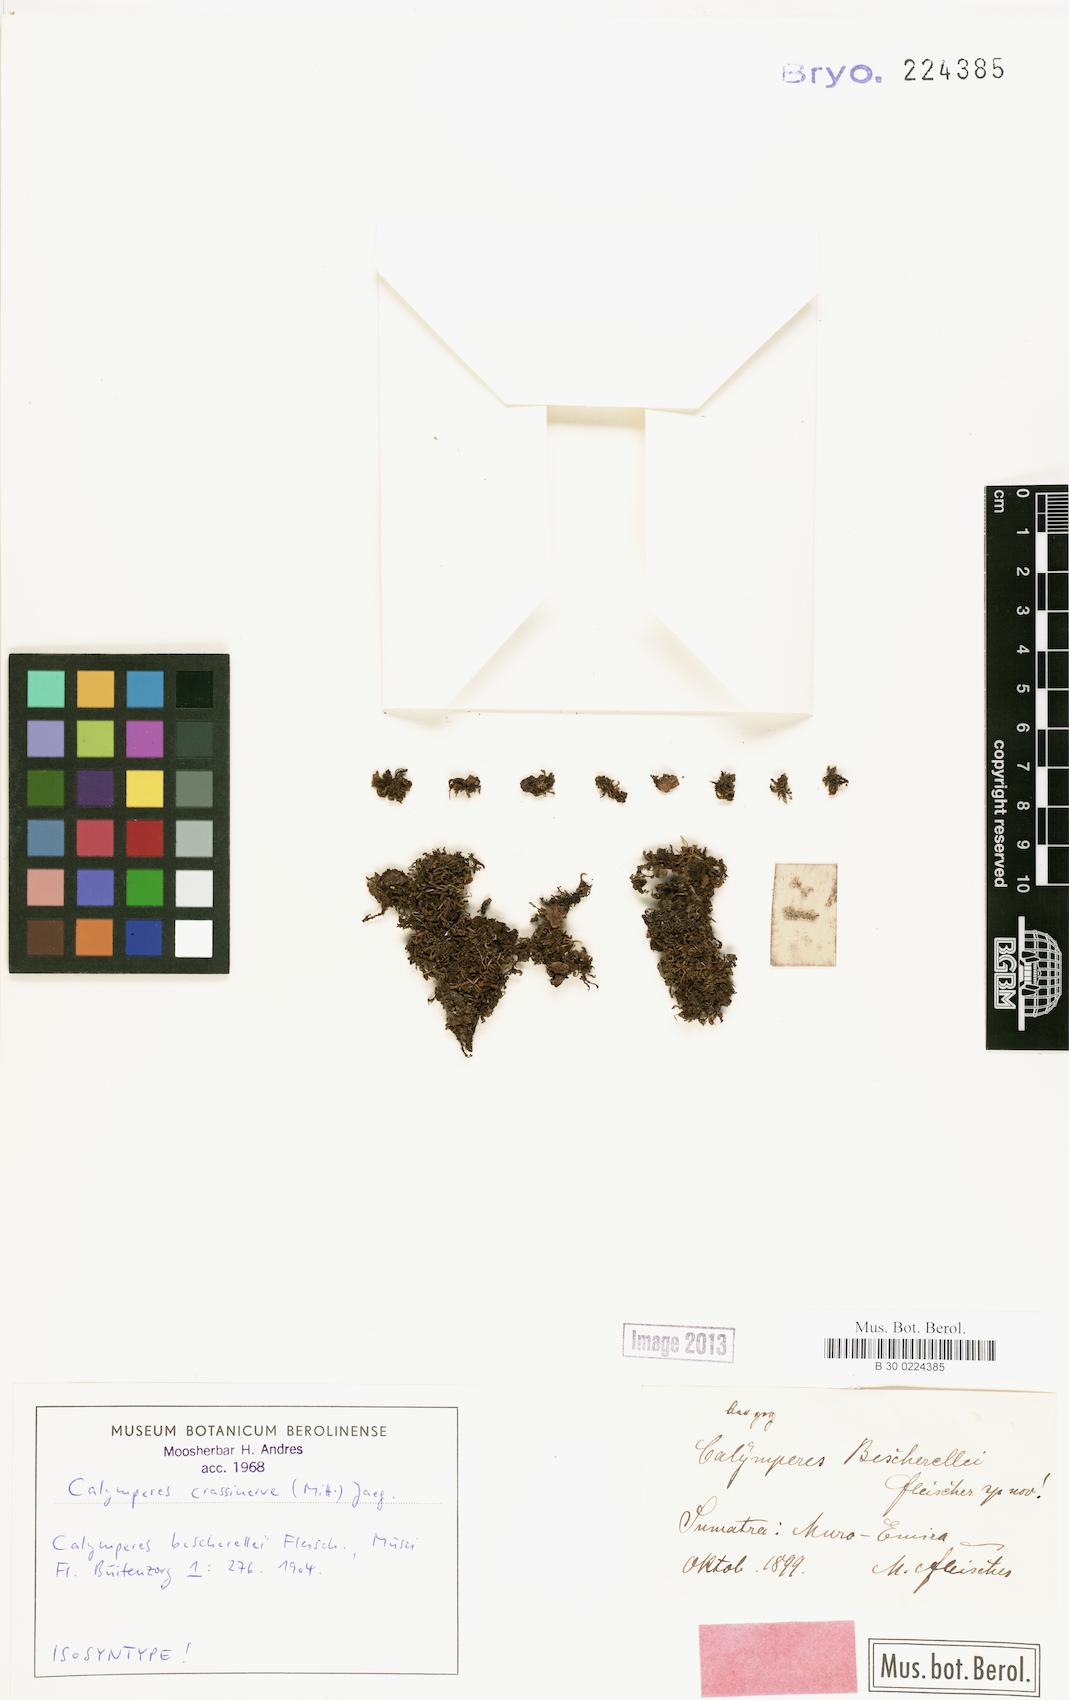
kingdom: Plantae
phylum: Bryophyta
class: Bryopsida
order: Dicranales
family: Calymperaceae
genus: Calymperes
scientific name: Calymperes crassinerve
